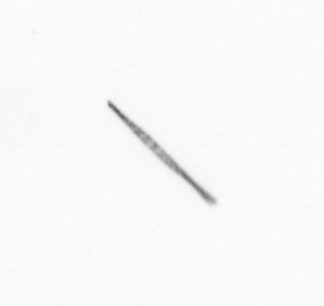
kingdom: Chromista
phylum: Ochrophyta
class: Bacillariophyceae
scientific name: Bacillariophyceae
